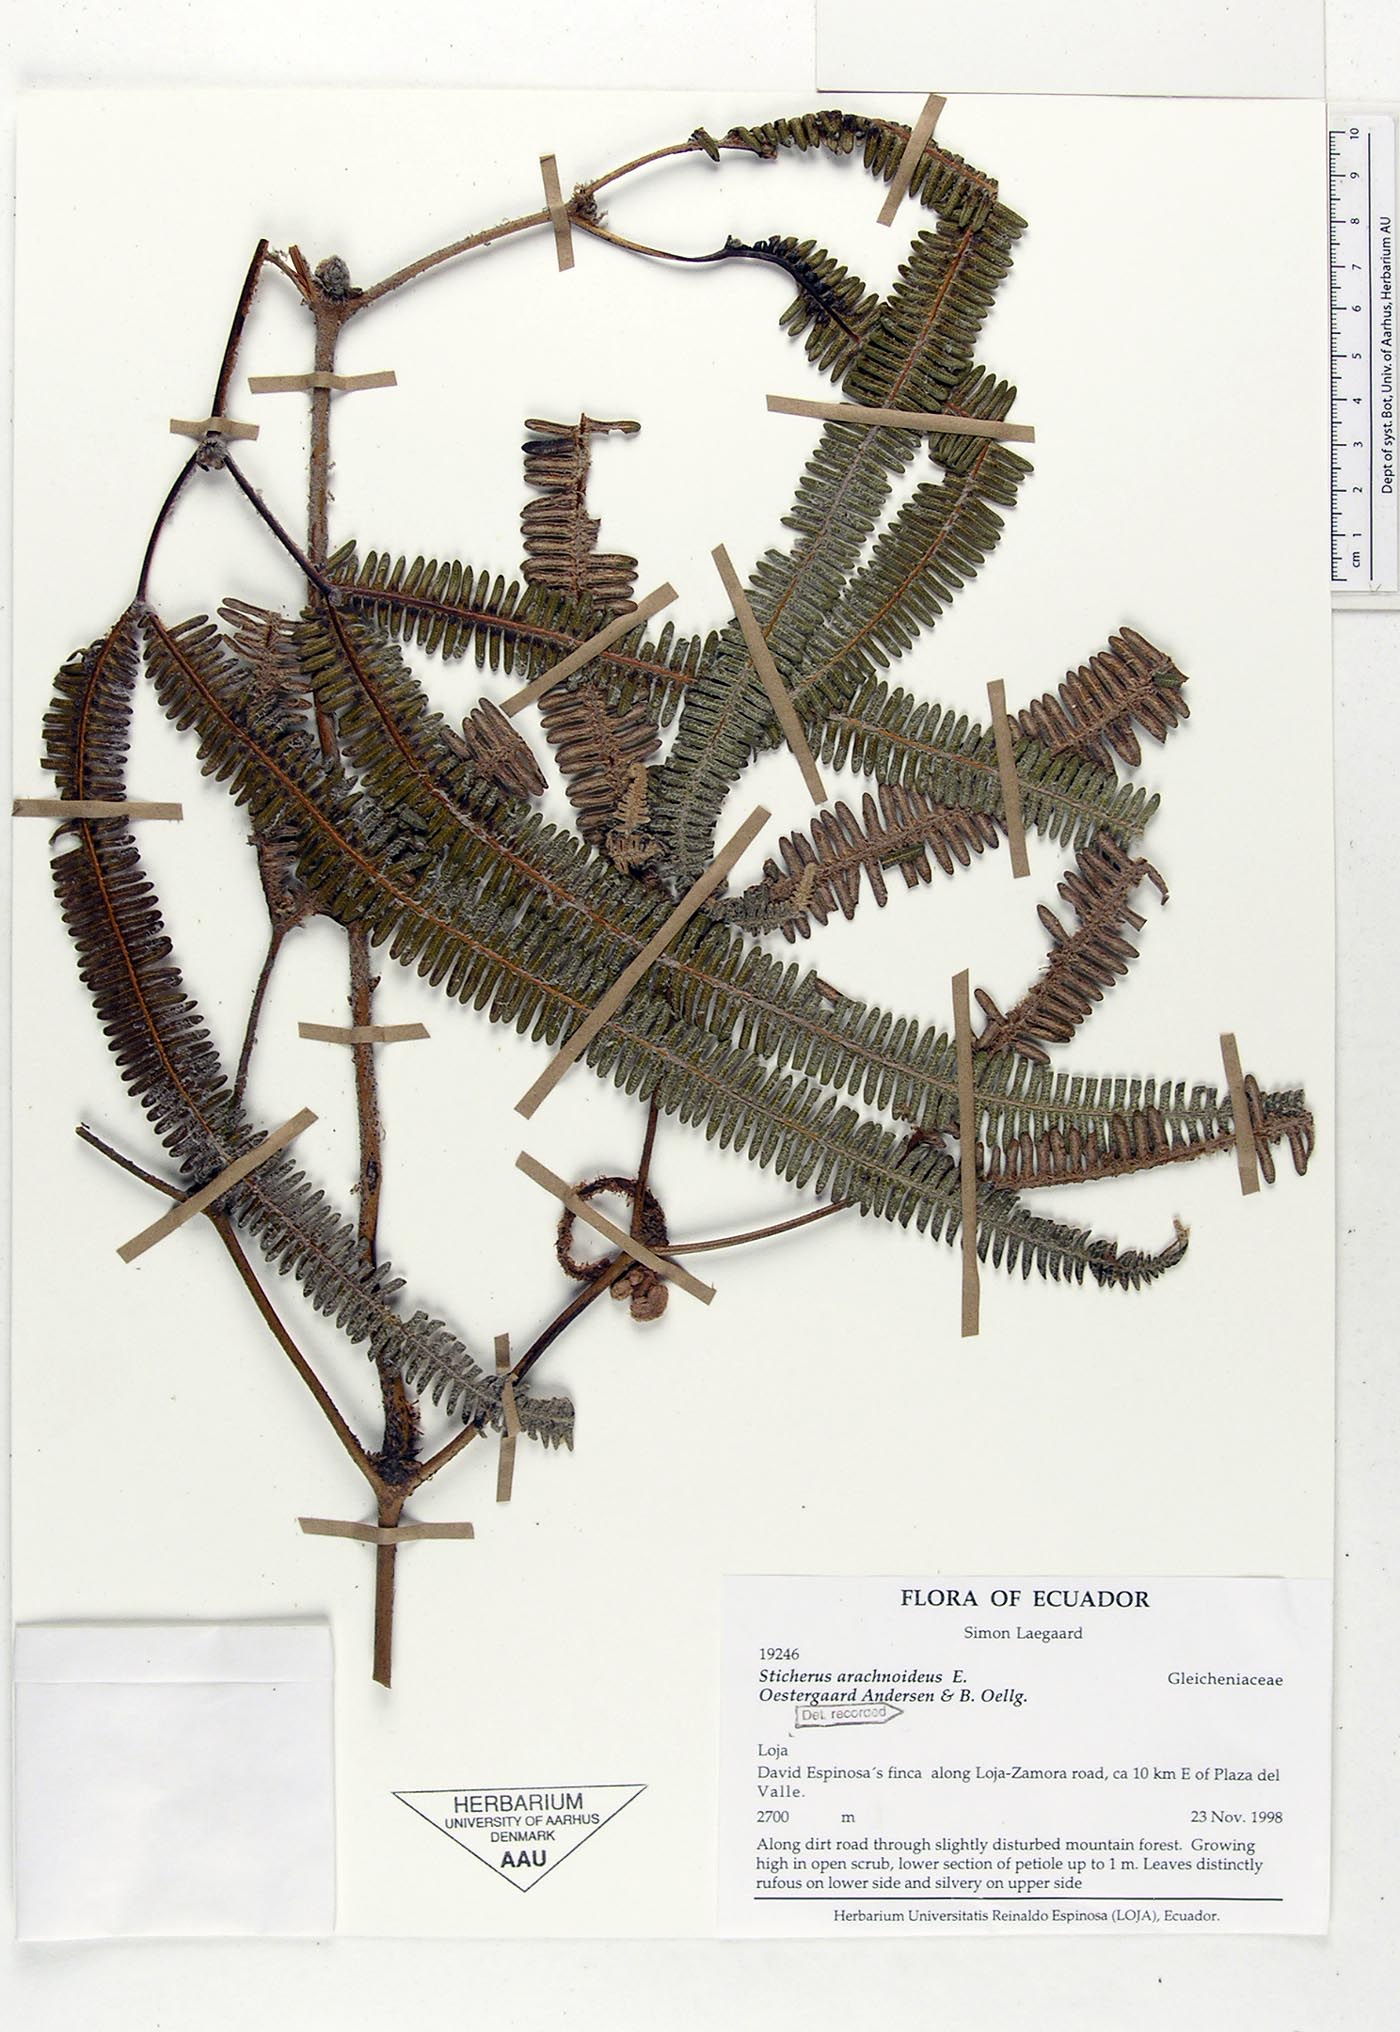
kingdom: Plantae
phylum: Tracheophyta
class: Polypodiopsida
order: Gleicheniales
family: Gleicheniaceae
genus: Sticherus
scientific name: Sticherus arachnoideus
